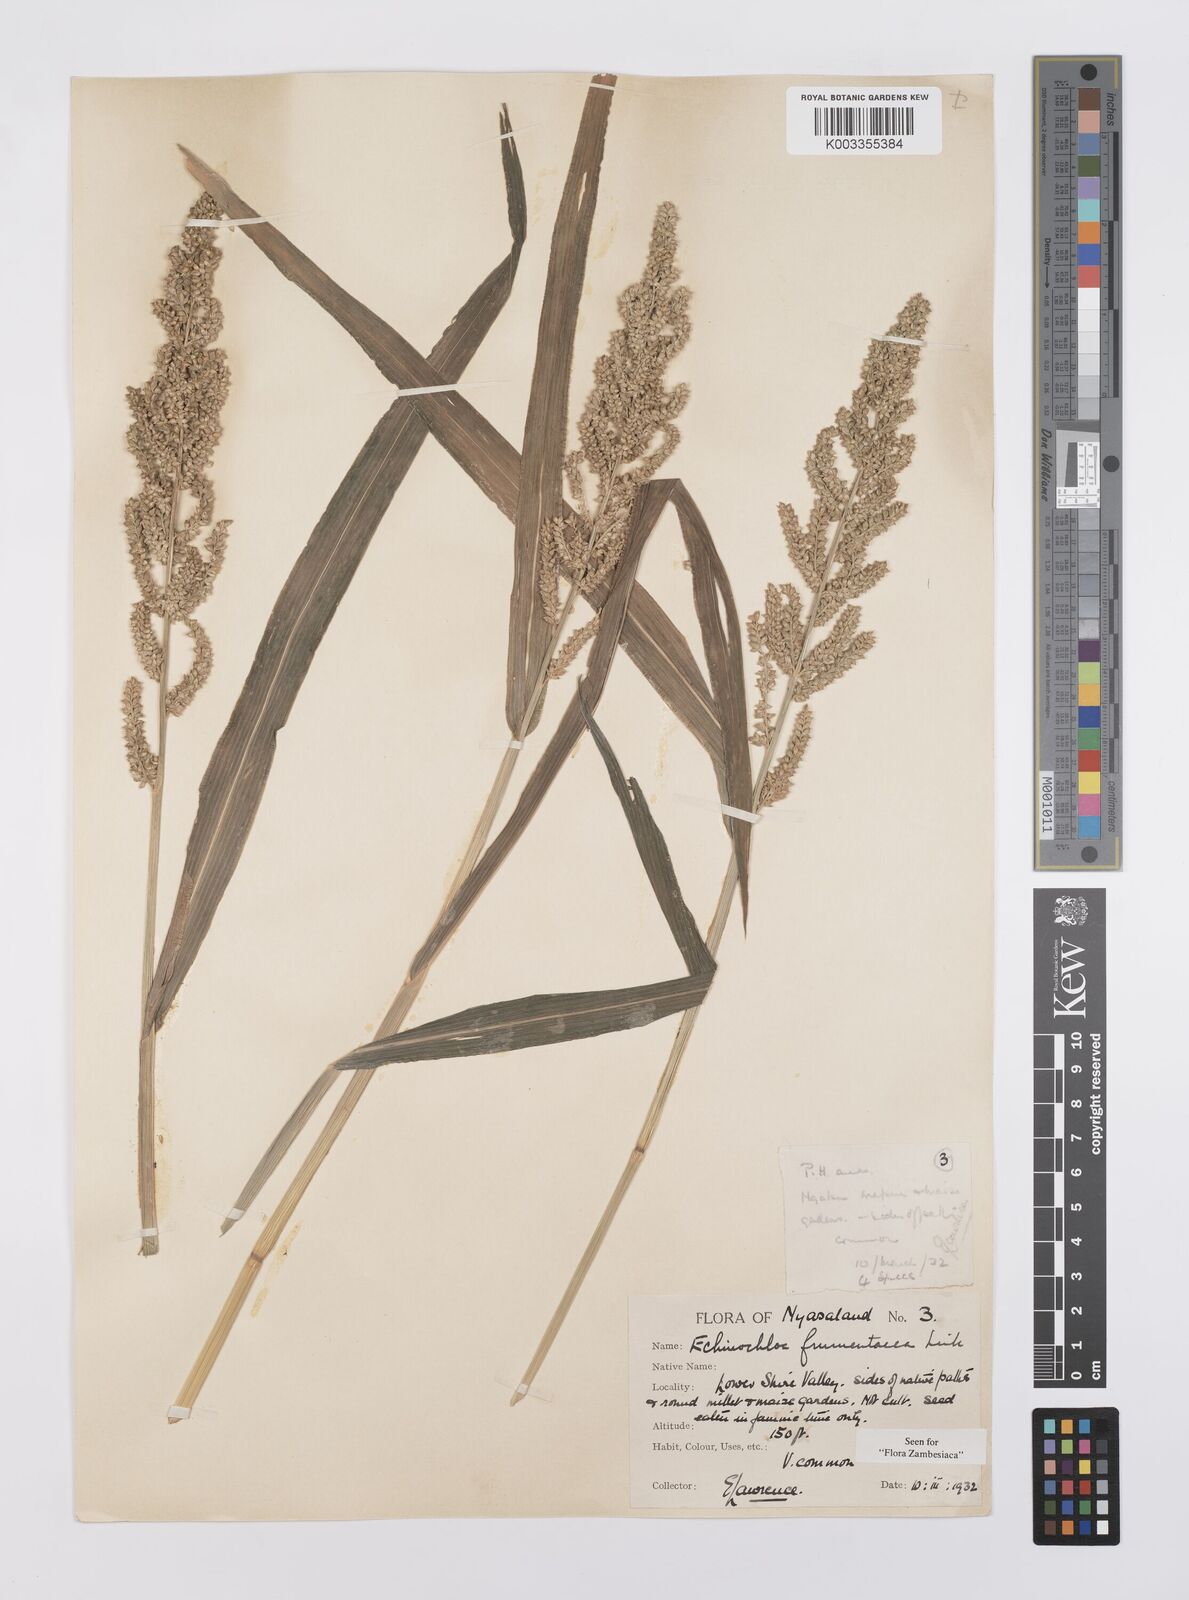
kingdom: Plantae
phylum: Tracheophyta
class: Liliopsida
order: Poales
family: Poaceae
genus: Echinochloa
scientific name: Echinochloa frumentacea
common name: Billion-dollar grass
